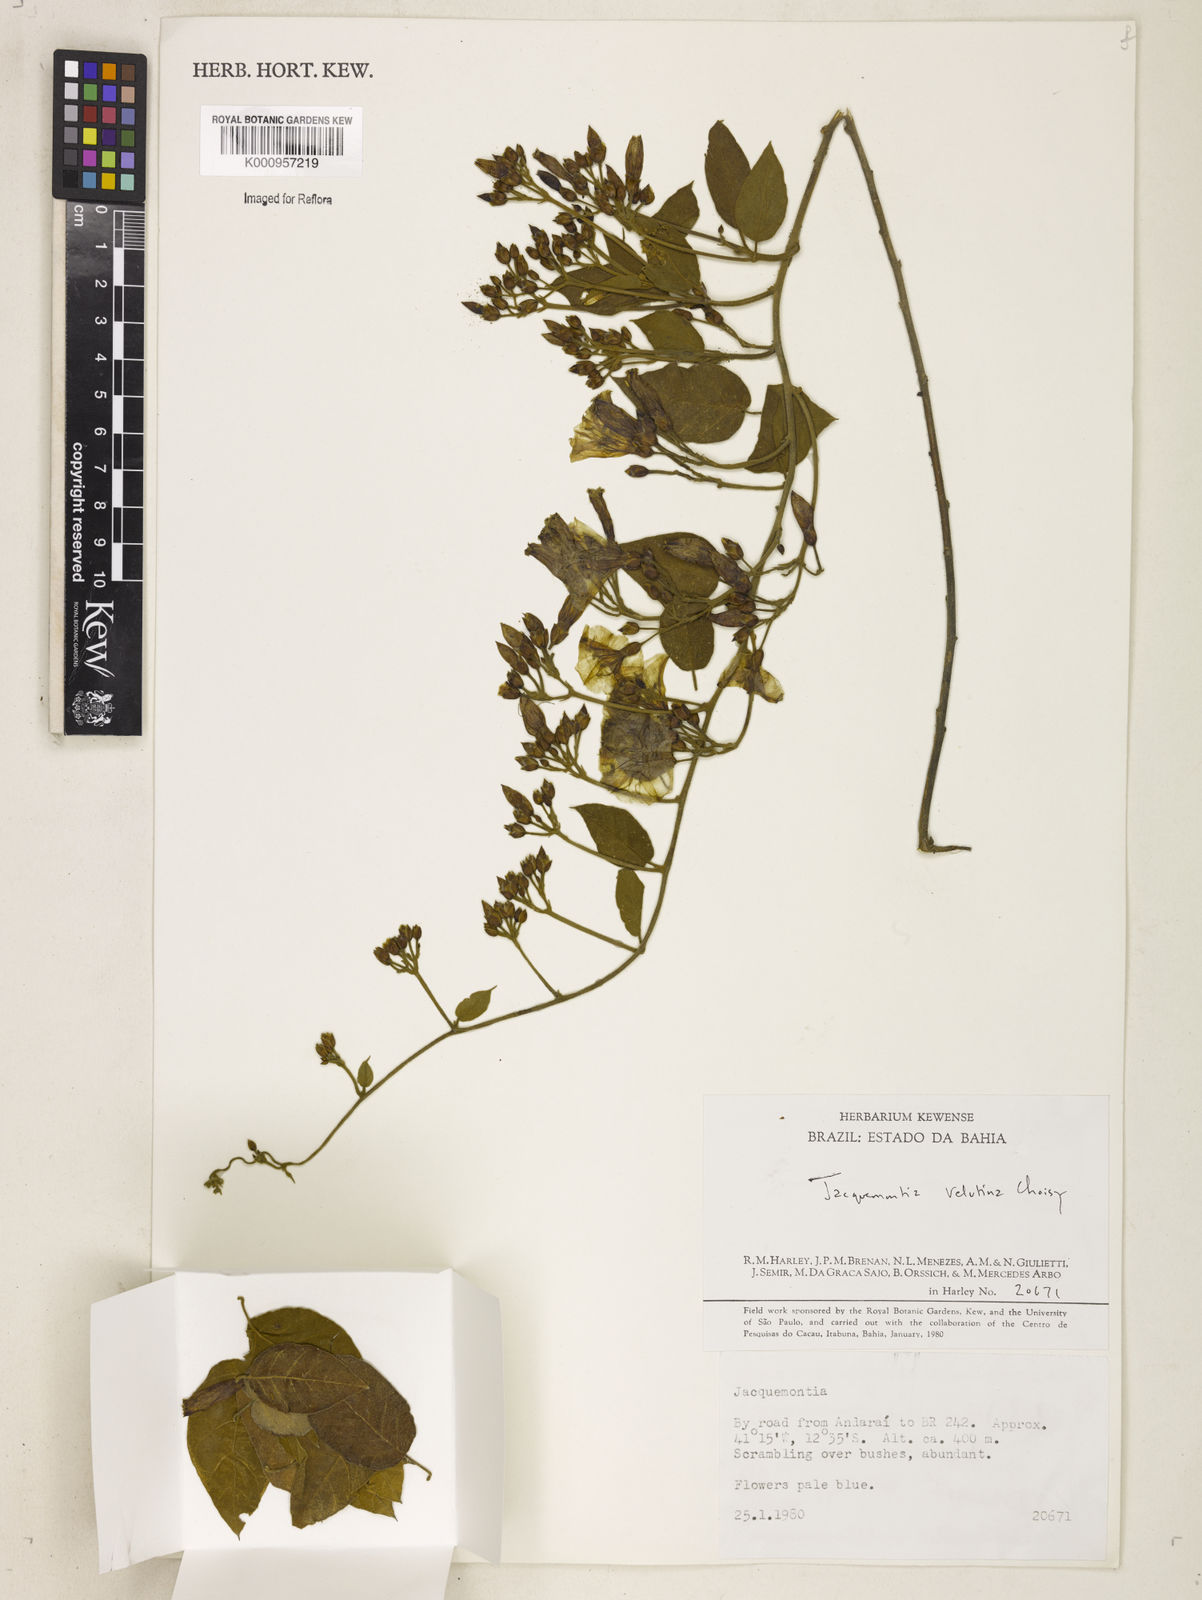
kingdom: Plantae
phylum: Tracheophyta
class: Magnoliopsida
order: Solanales
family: Convolvulaceae
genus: Jacquemontia
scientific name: Jacquemontia velutina
